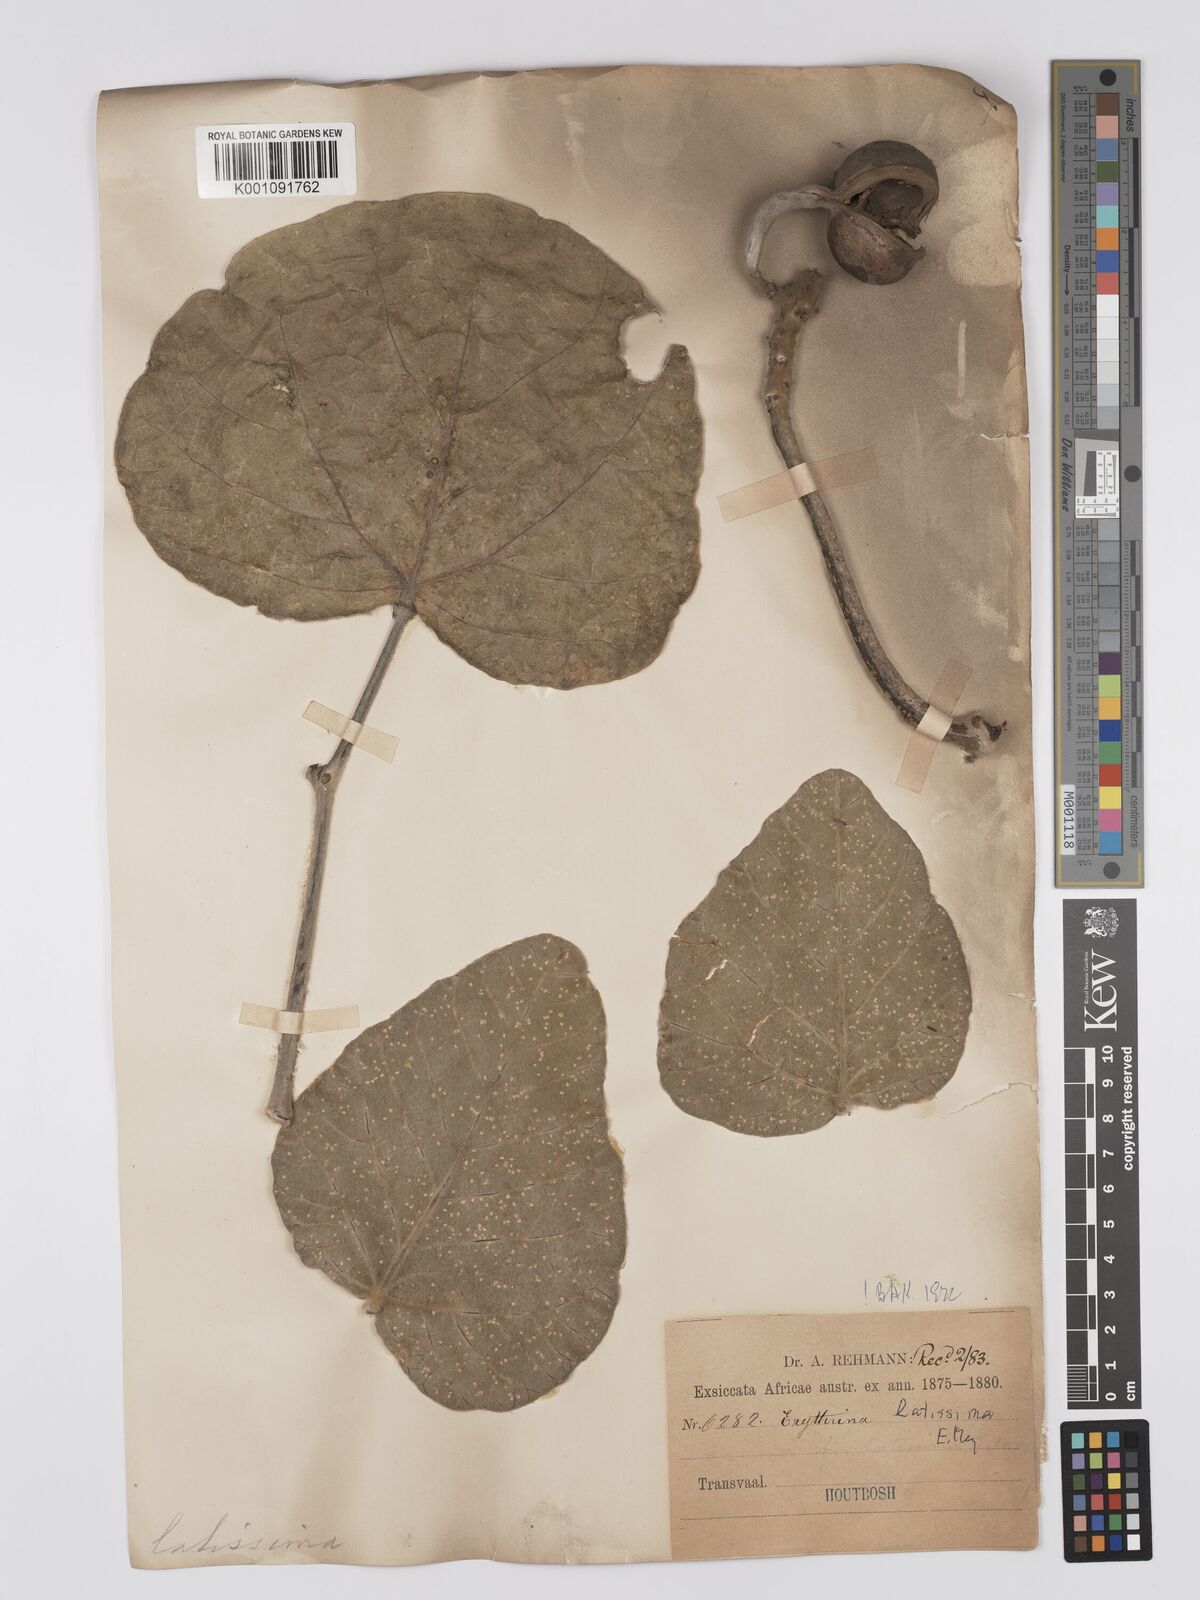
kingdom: Plantae
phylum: Tracheophyta
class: Magnoliopsida
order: Fabales
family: Fabaceae
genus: Erythrina
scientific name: Erythrina latissima
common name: Broad-leaved coral tree
